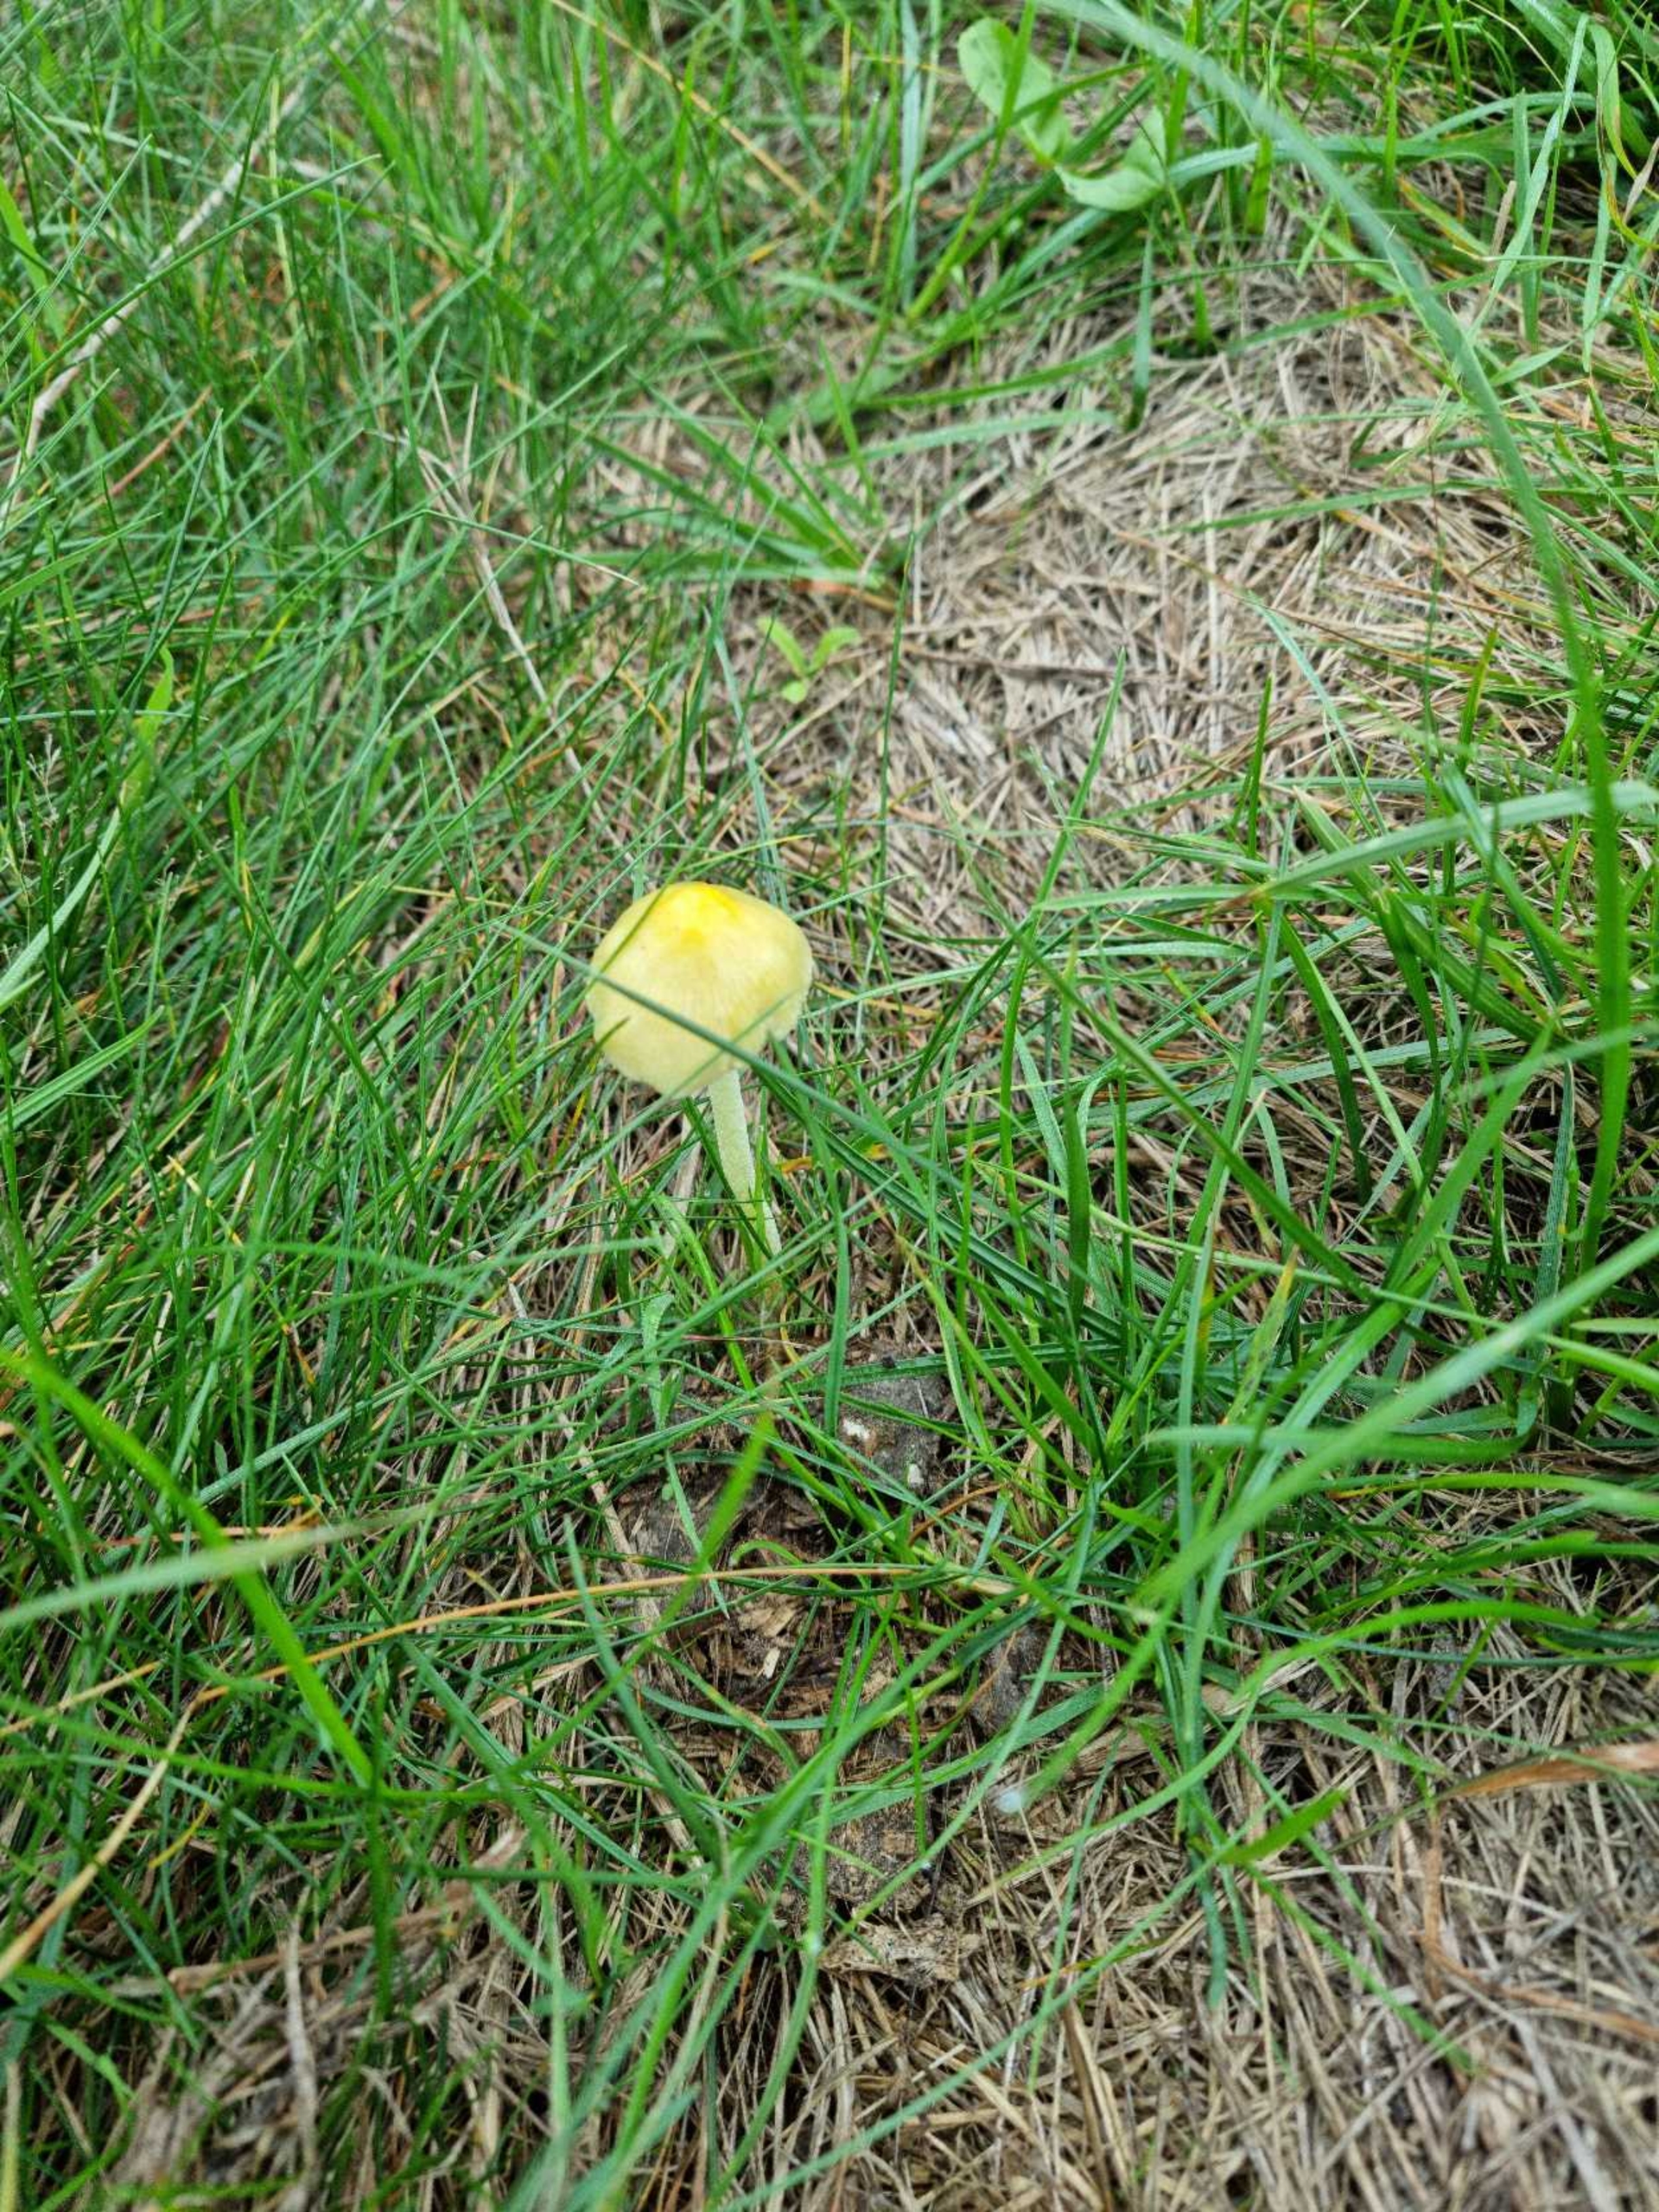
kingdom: Fungi
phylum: Basidiomycota
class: Agaricomycetes
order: Agaricales
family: Bolbitiaceae
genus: Bolbitius
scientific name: Bolbitius titubans
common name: Almindelig gulhat
